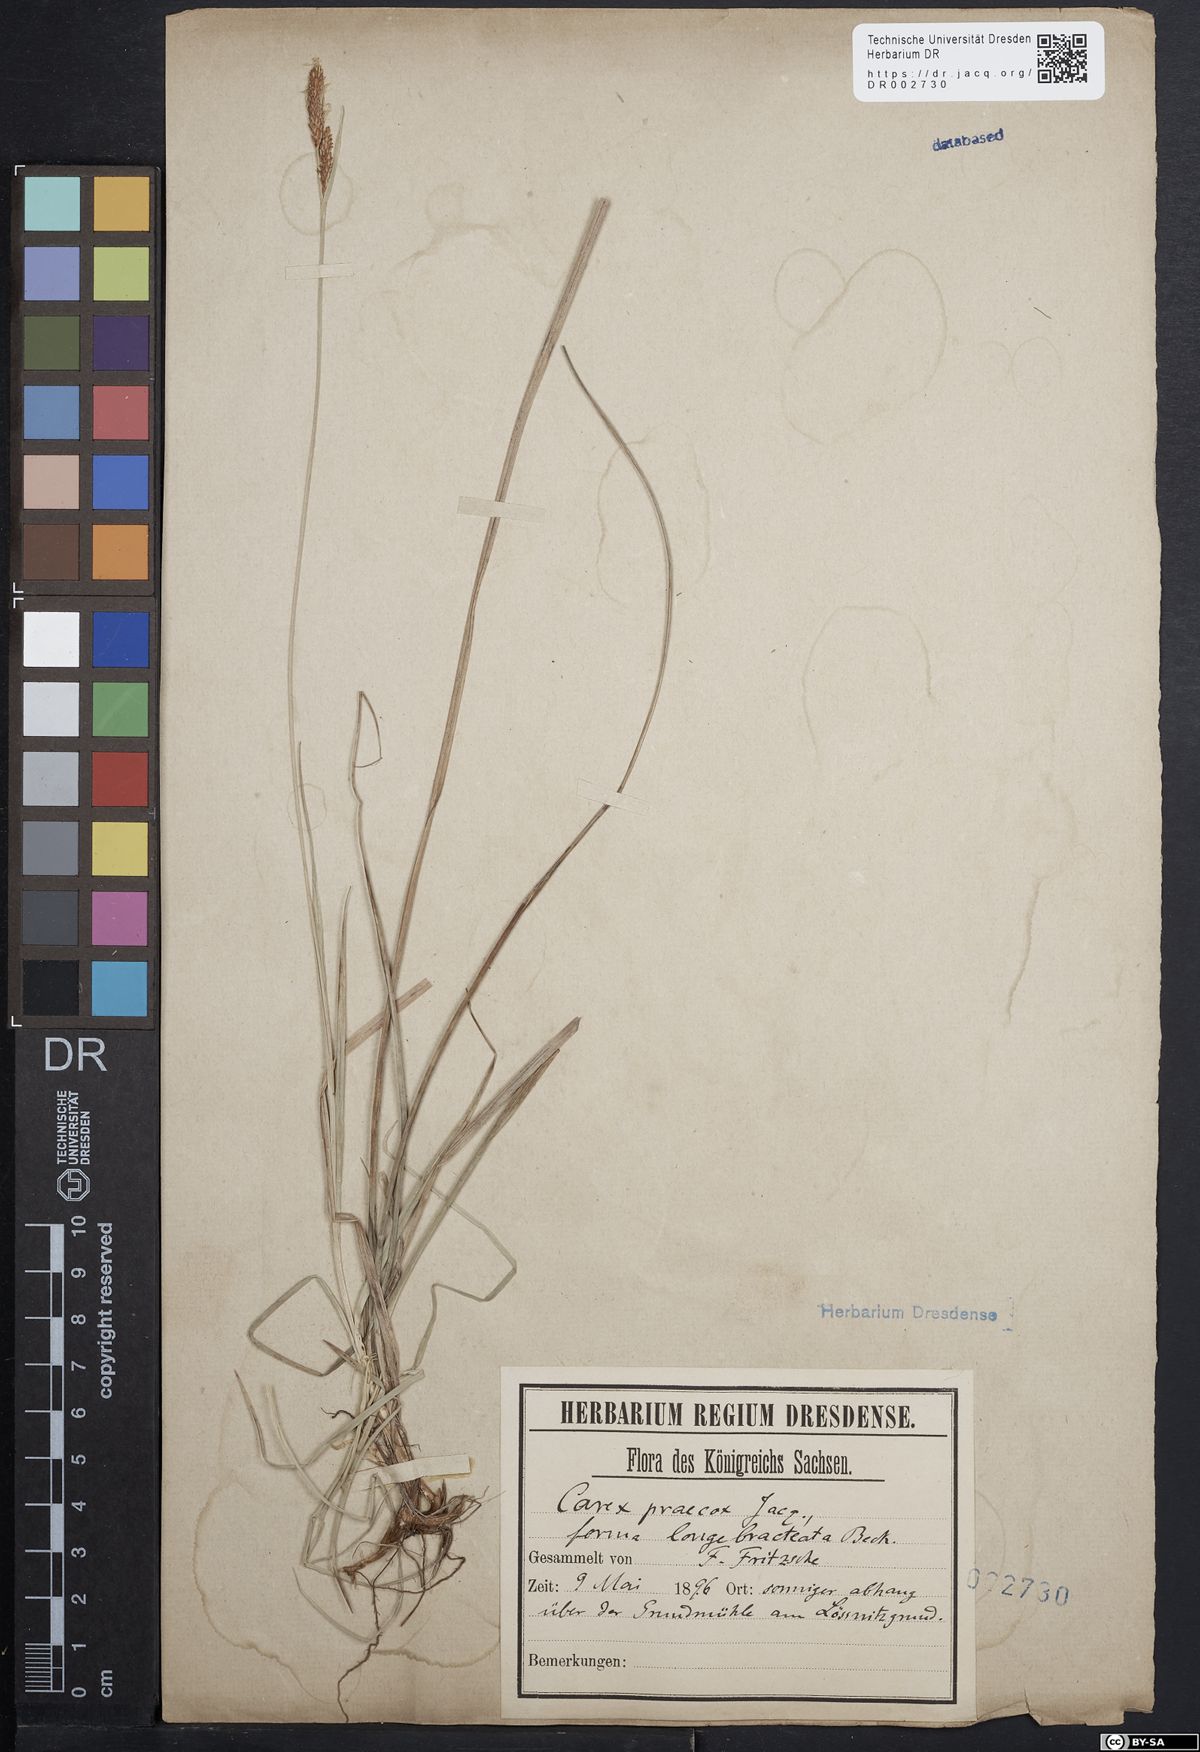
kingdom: Plantae
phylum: Tracheophyta
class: Liliopsida
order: Poales
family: Cyperaceae
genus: Carex
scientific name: Carex caryophyllea
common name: Spring sedge
